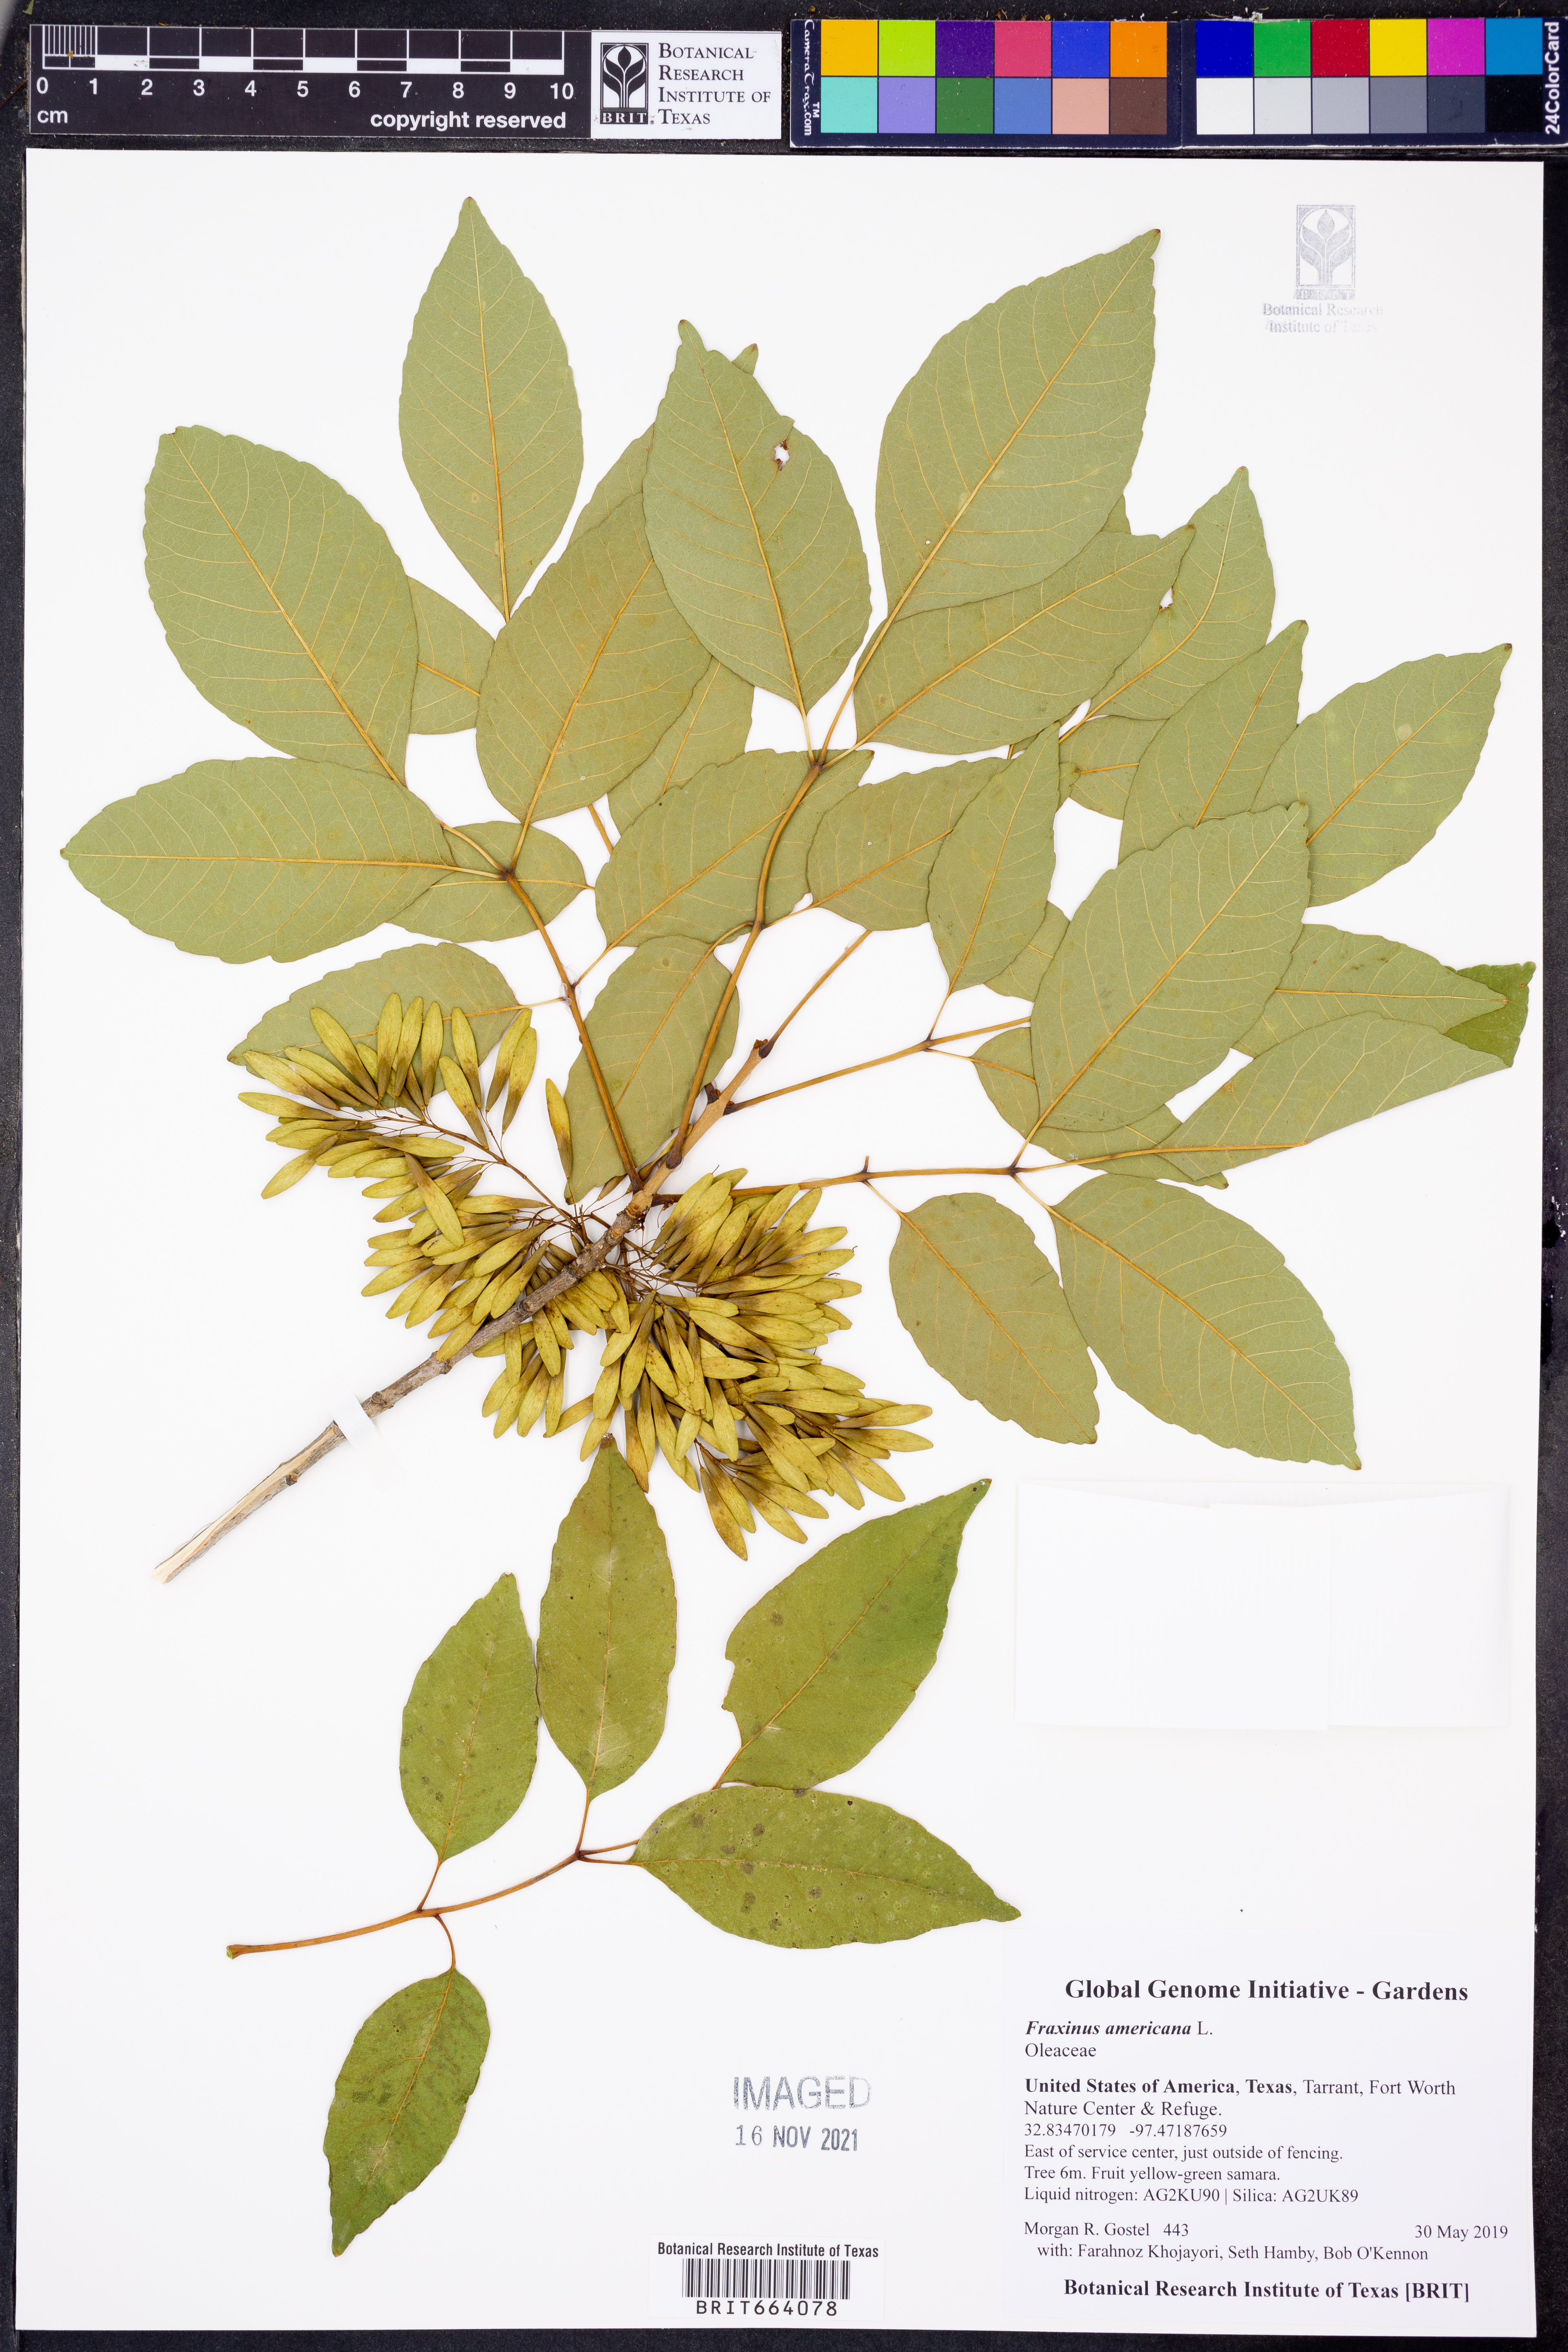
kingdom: Plantae
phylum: Tracheophyta
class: Magnoliopsida
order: Lamiales
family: Oleaceae
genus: Fraxinus
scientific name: Fraxinus americana
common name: White ash
